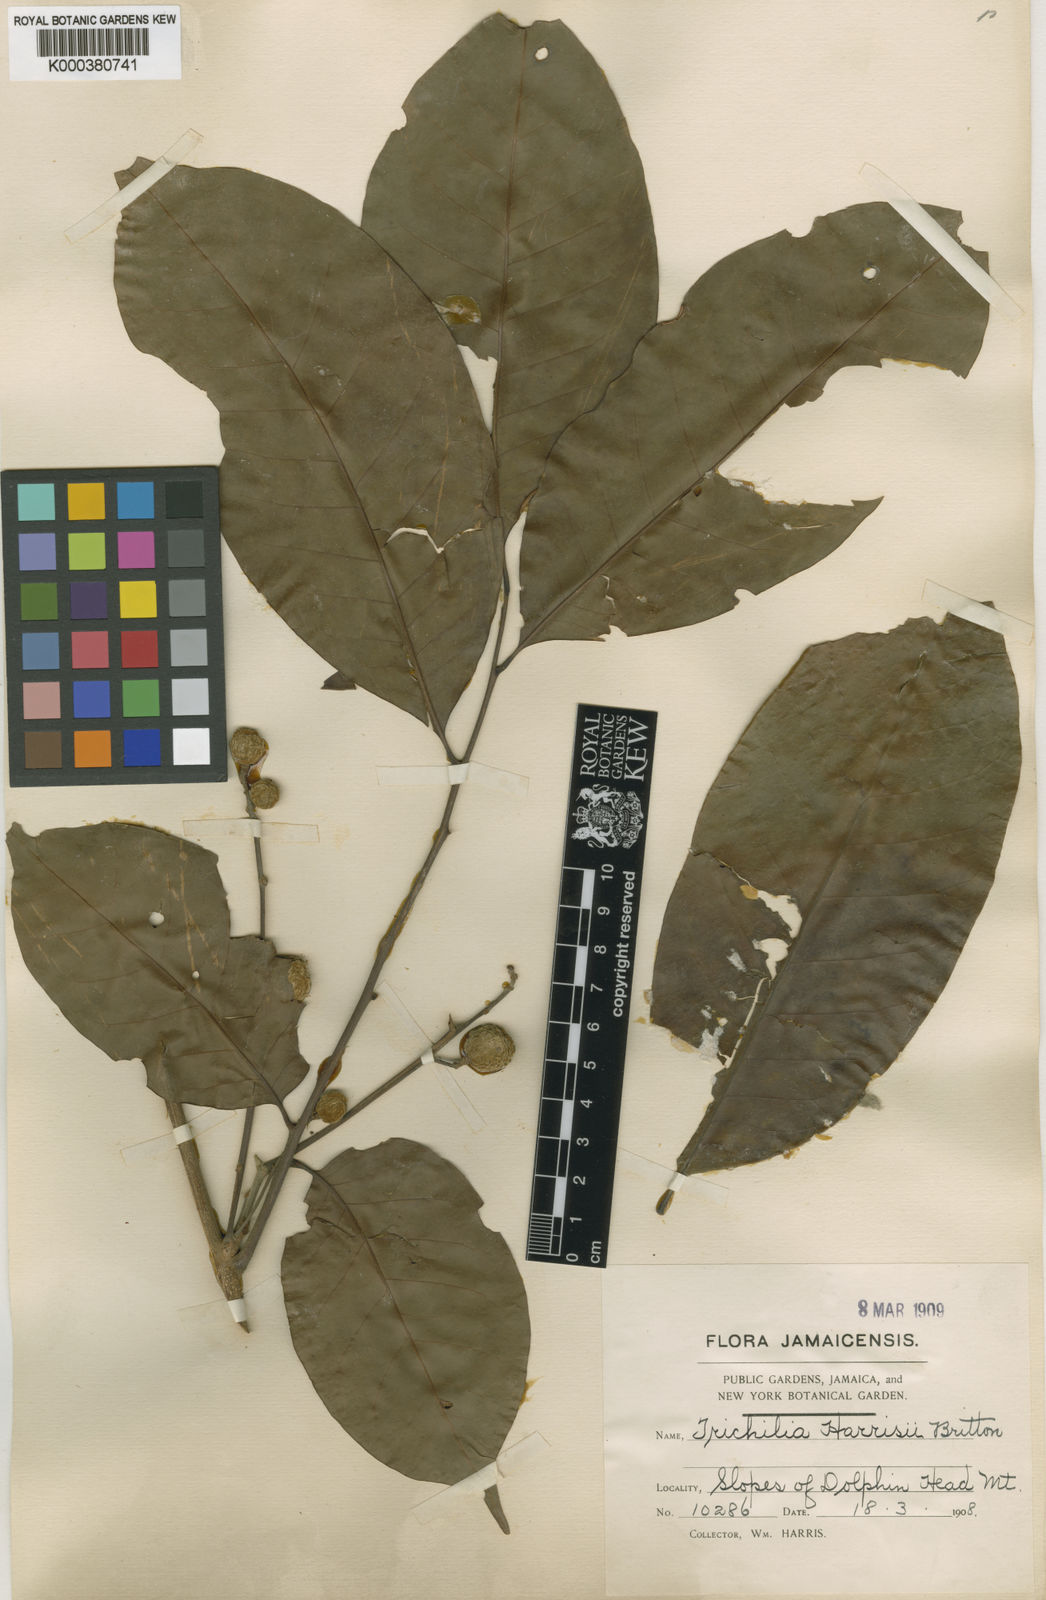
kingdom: Plantae
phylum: Tracheophyta
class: Magnoliopsida
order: Sapindales
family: Meliaceae
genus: Trichilia
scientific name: Trichilia moschata
